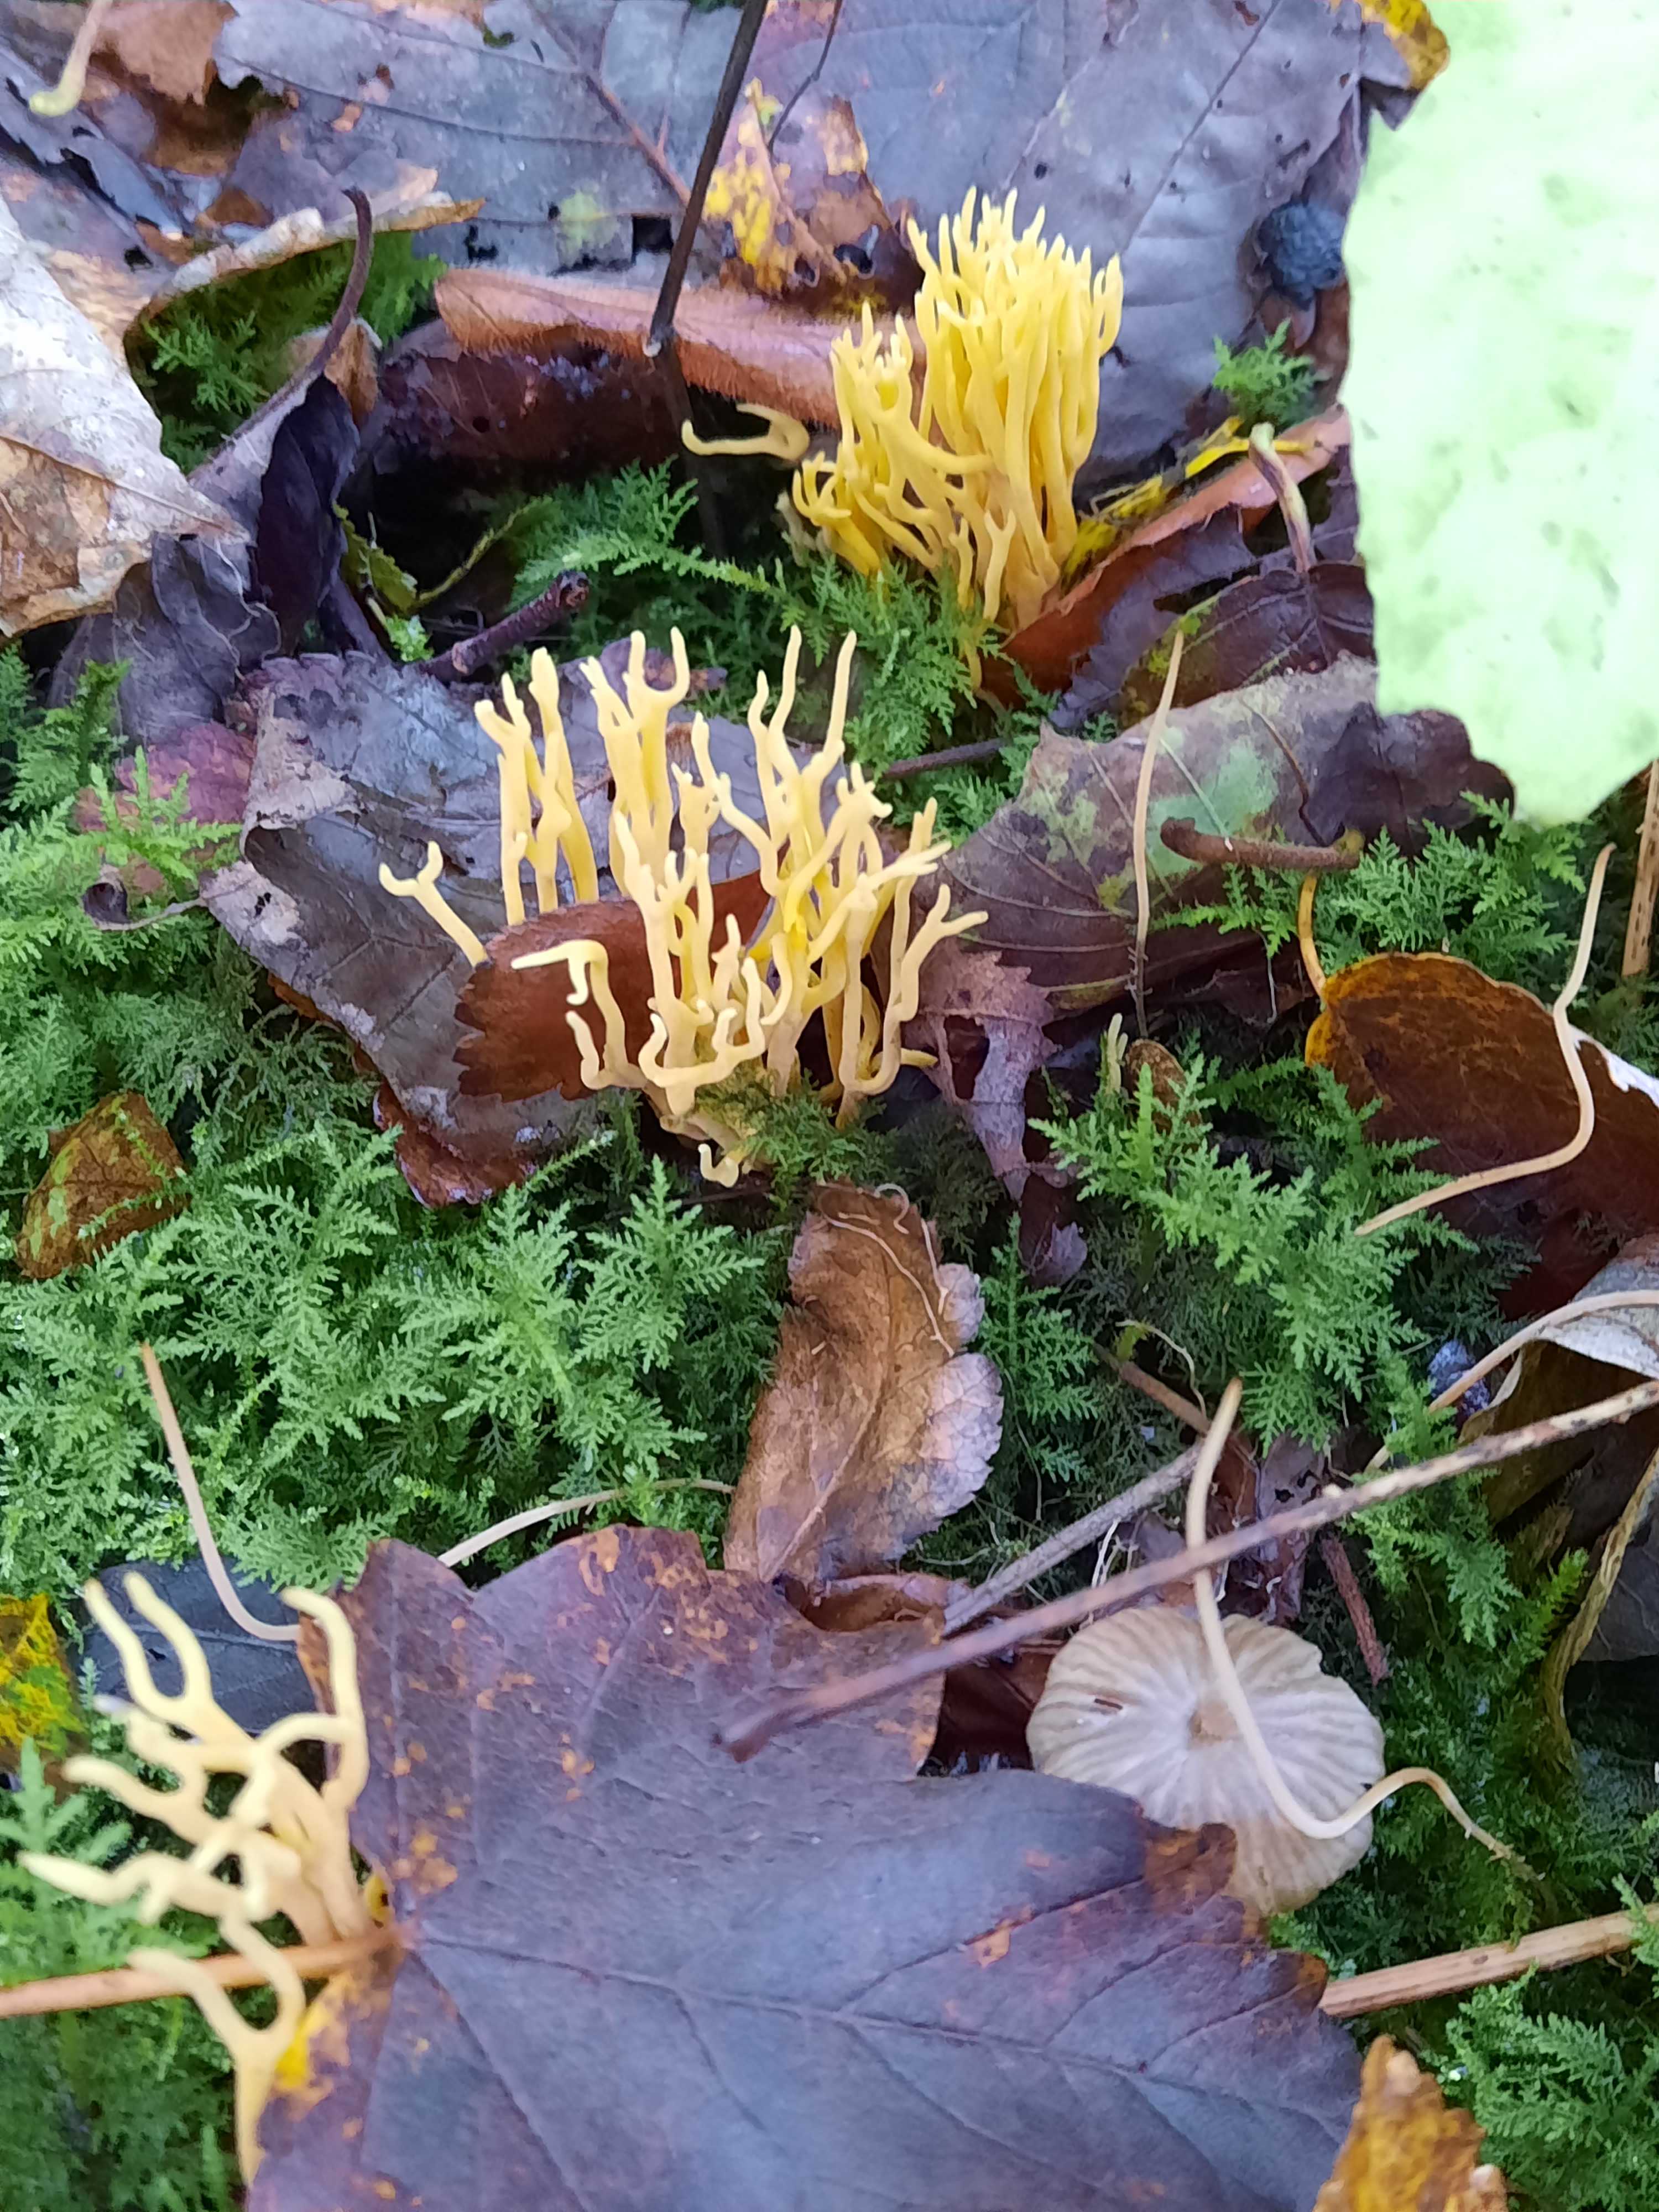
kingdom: Fungi
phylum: Basidiomycota
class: Agaricomycetes
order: Agaricales
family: Clavariaceae
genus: Clavulinopsis
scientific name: Clavulinopsis corniculata
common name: eng-køllesvamp
